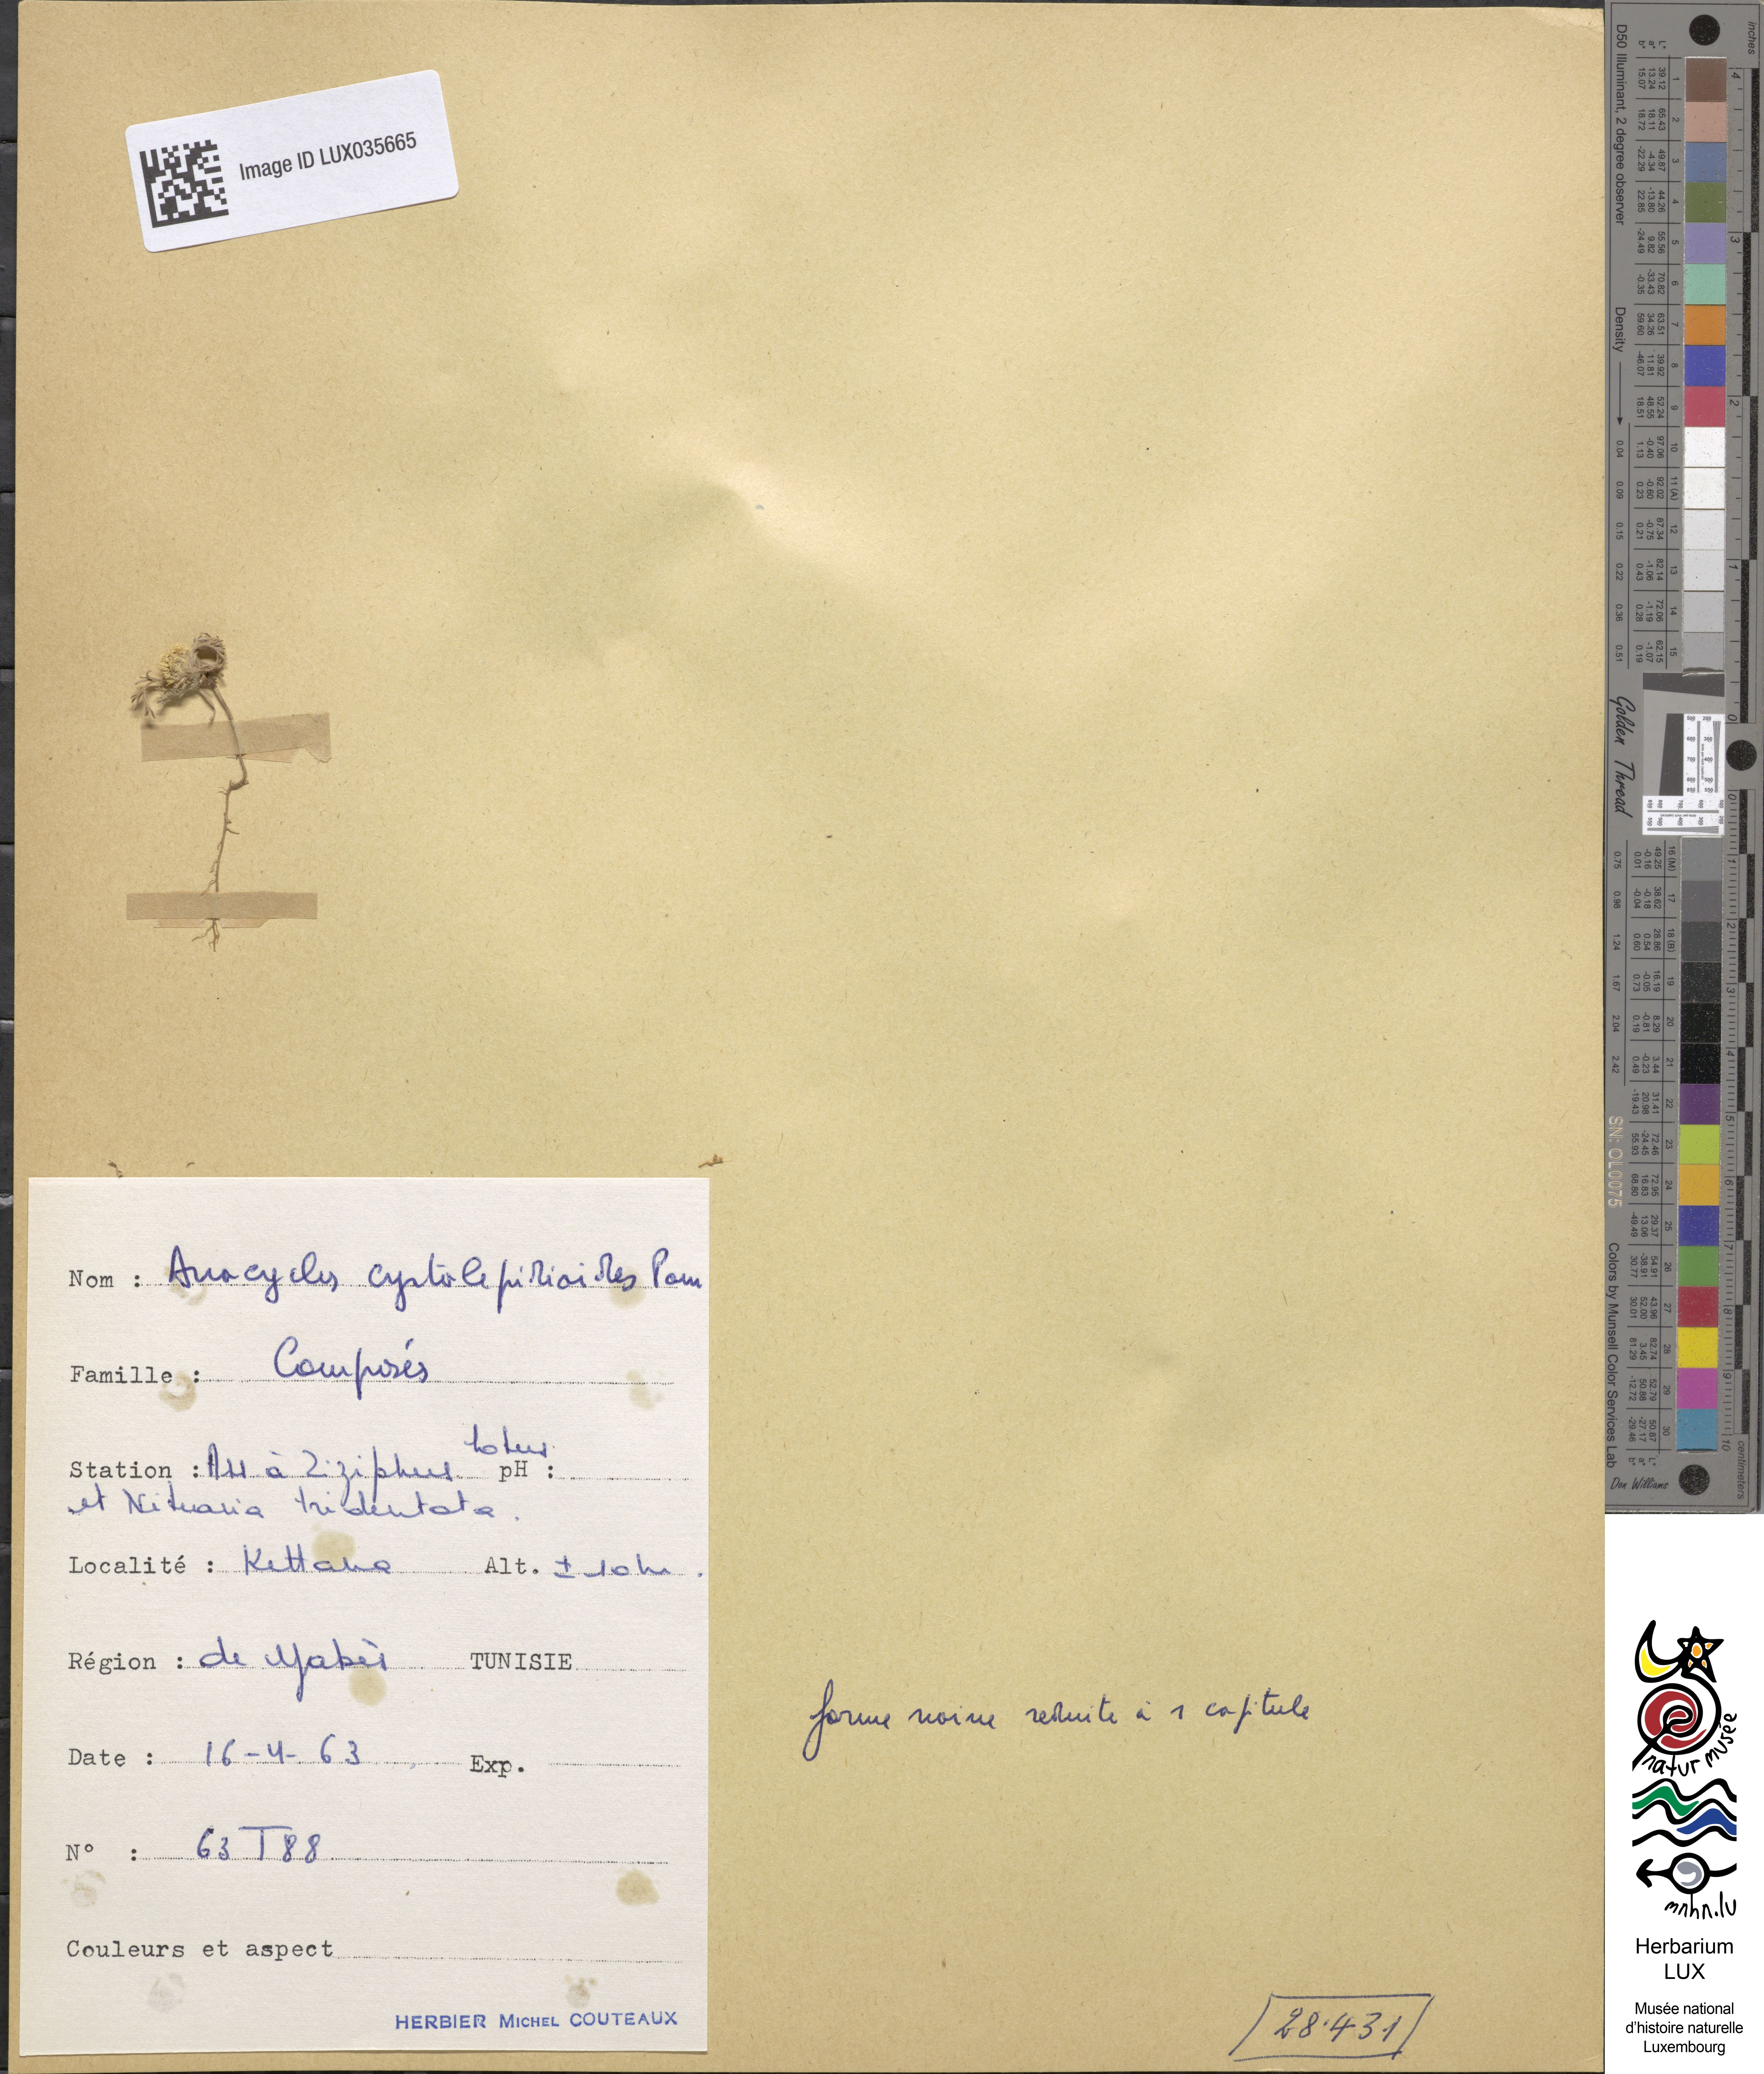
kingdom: Plantae
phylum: Tracheophyta
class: Magnoliopsida
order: Asterales
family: Asteraceae
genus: Anacyclus
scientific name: Anacyclus
